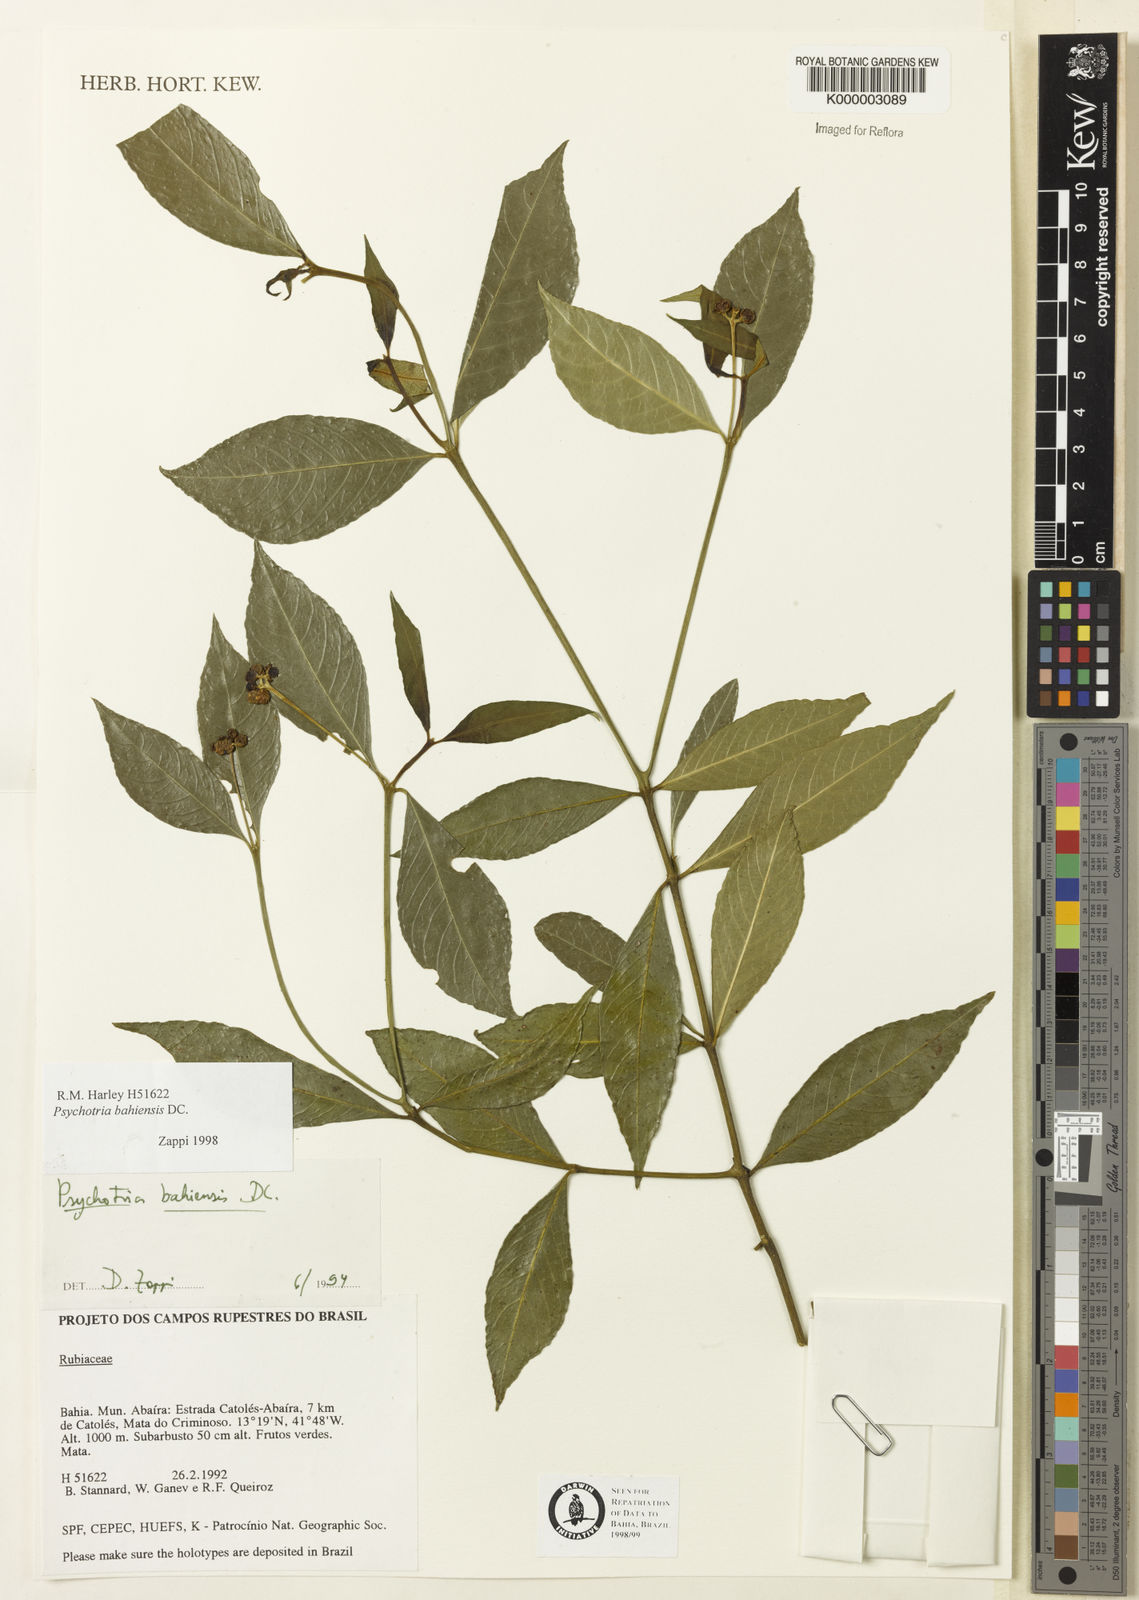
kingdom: Plantae
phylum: Tracheophyta
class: Magnoliopsida
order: Gentianales
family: Rubiaceae
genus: Psychotria
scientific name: Psychotria bahiensis
